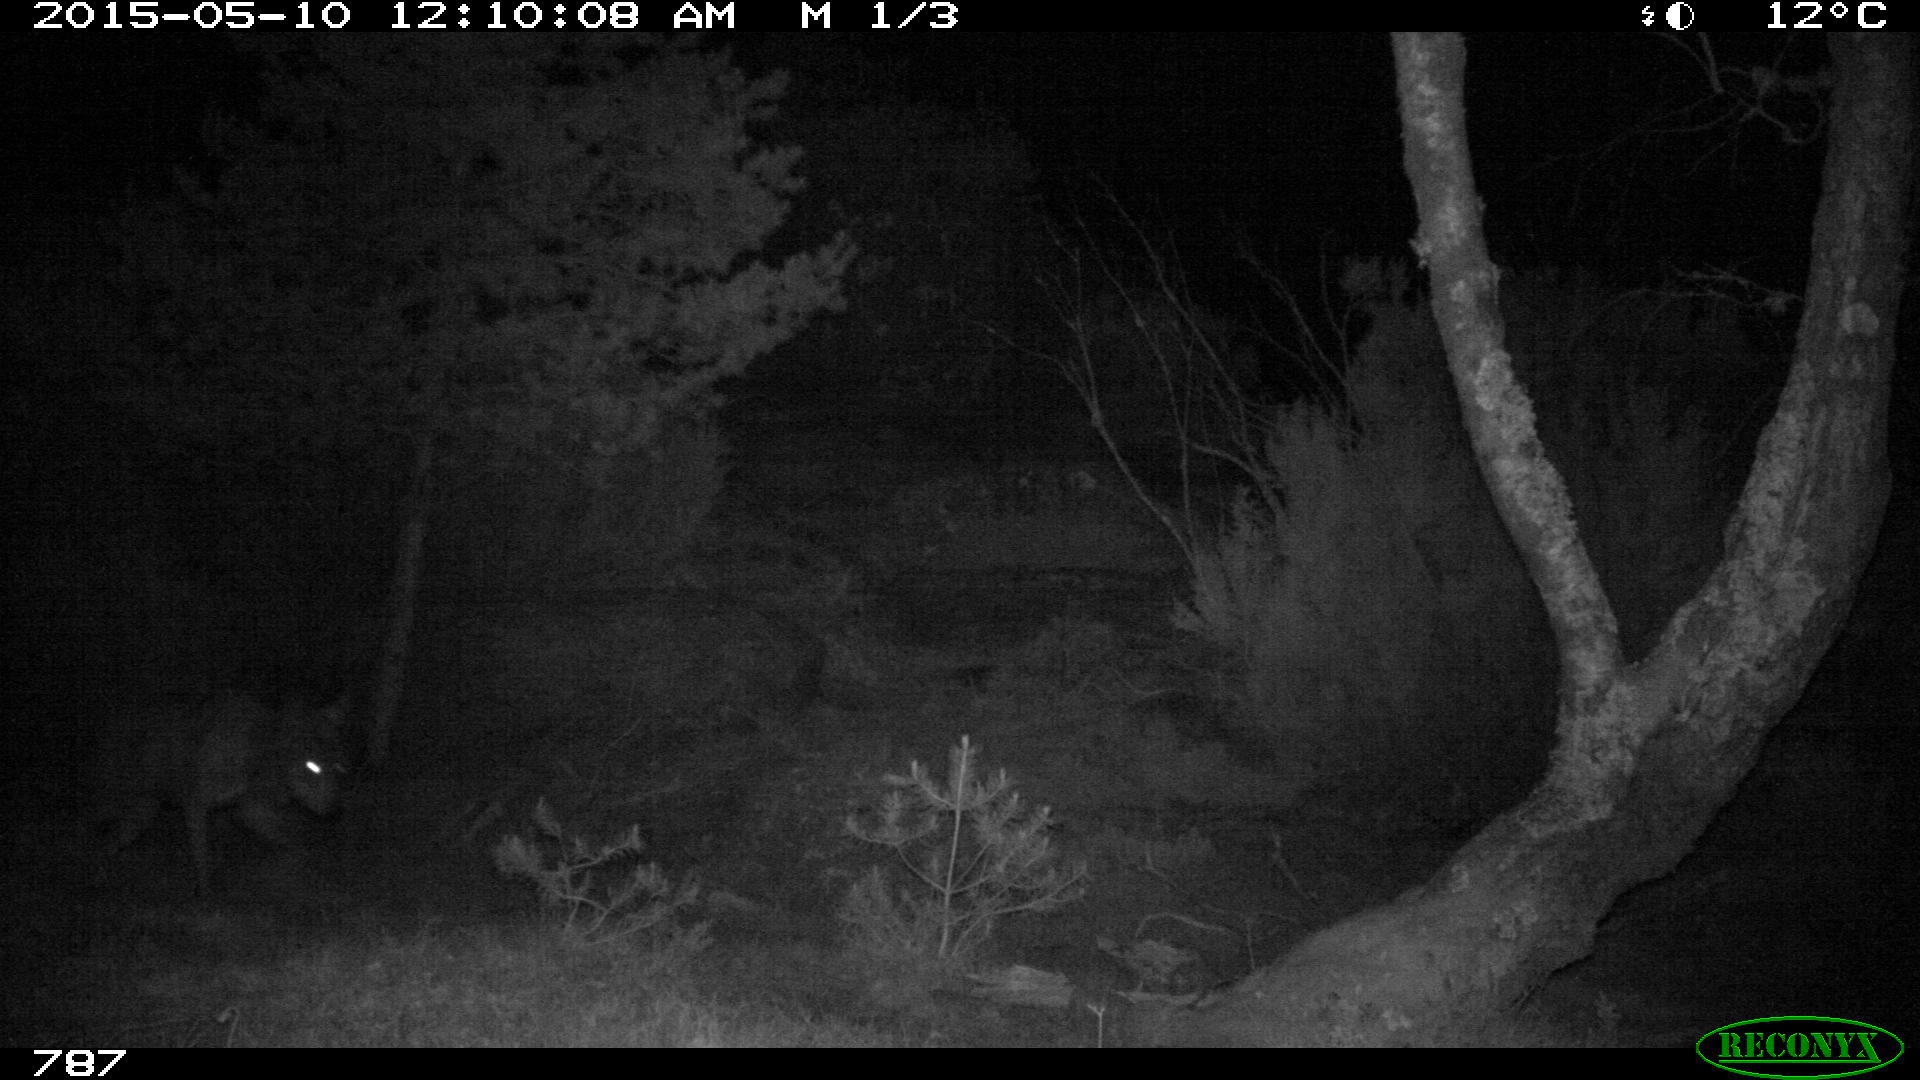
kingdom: Animalia
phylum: Chordata
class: Mammalia
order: Carnivora
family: Canidae
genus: Canis
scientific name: Canis lupus
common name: Gray wolf
